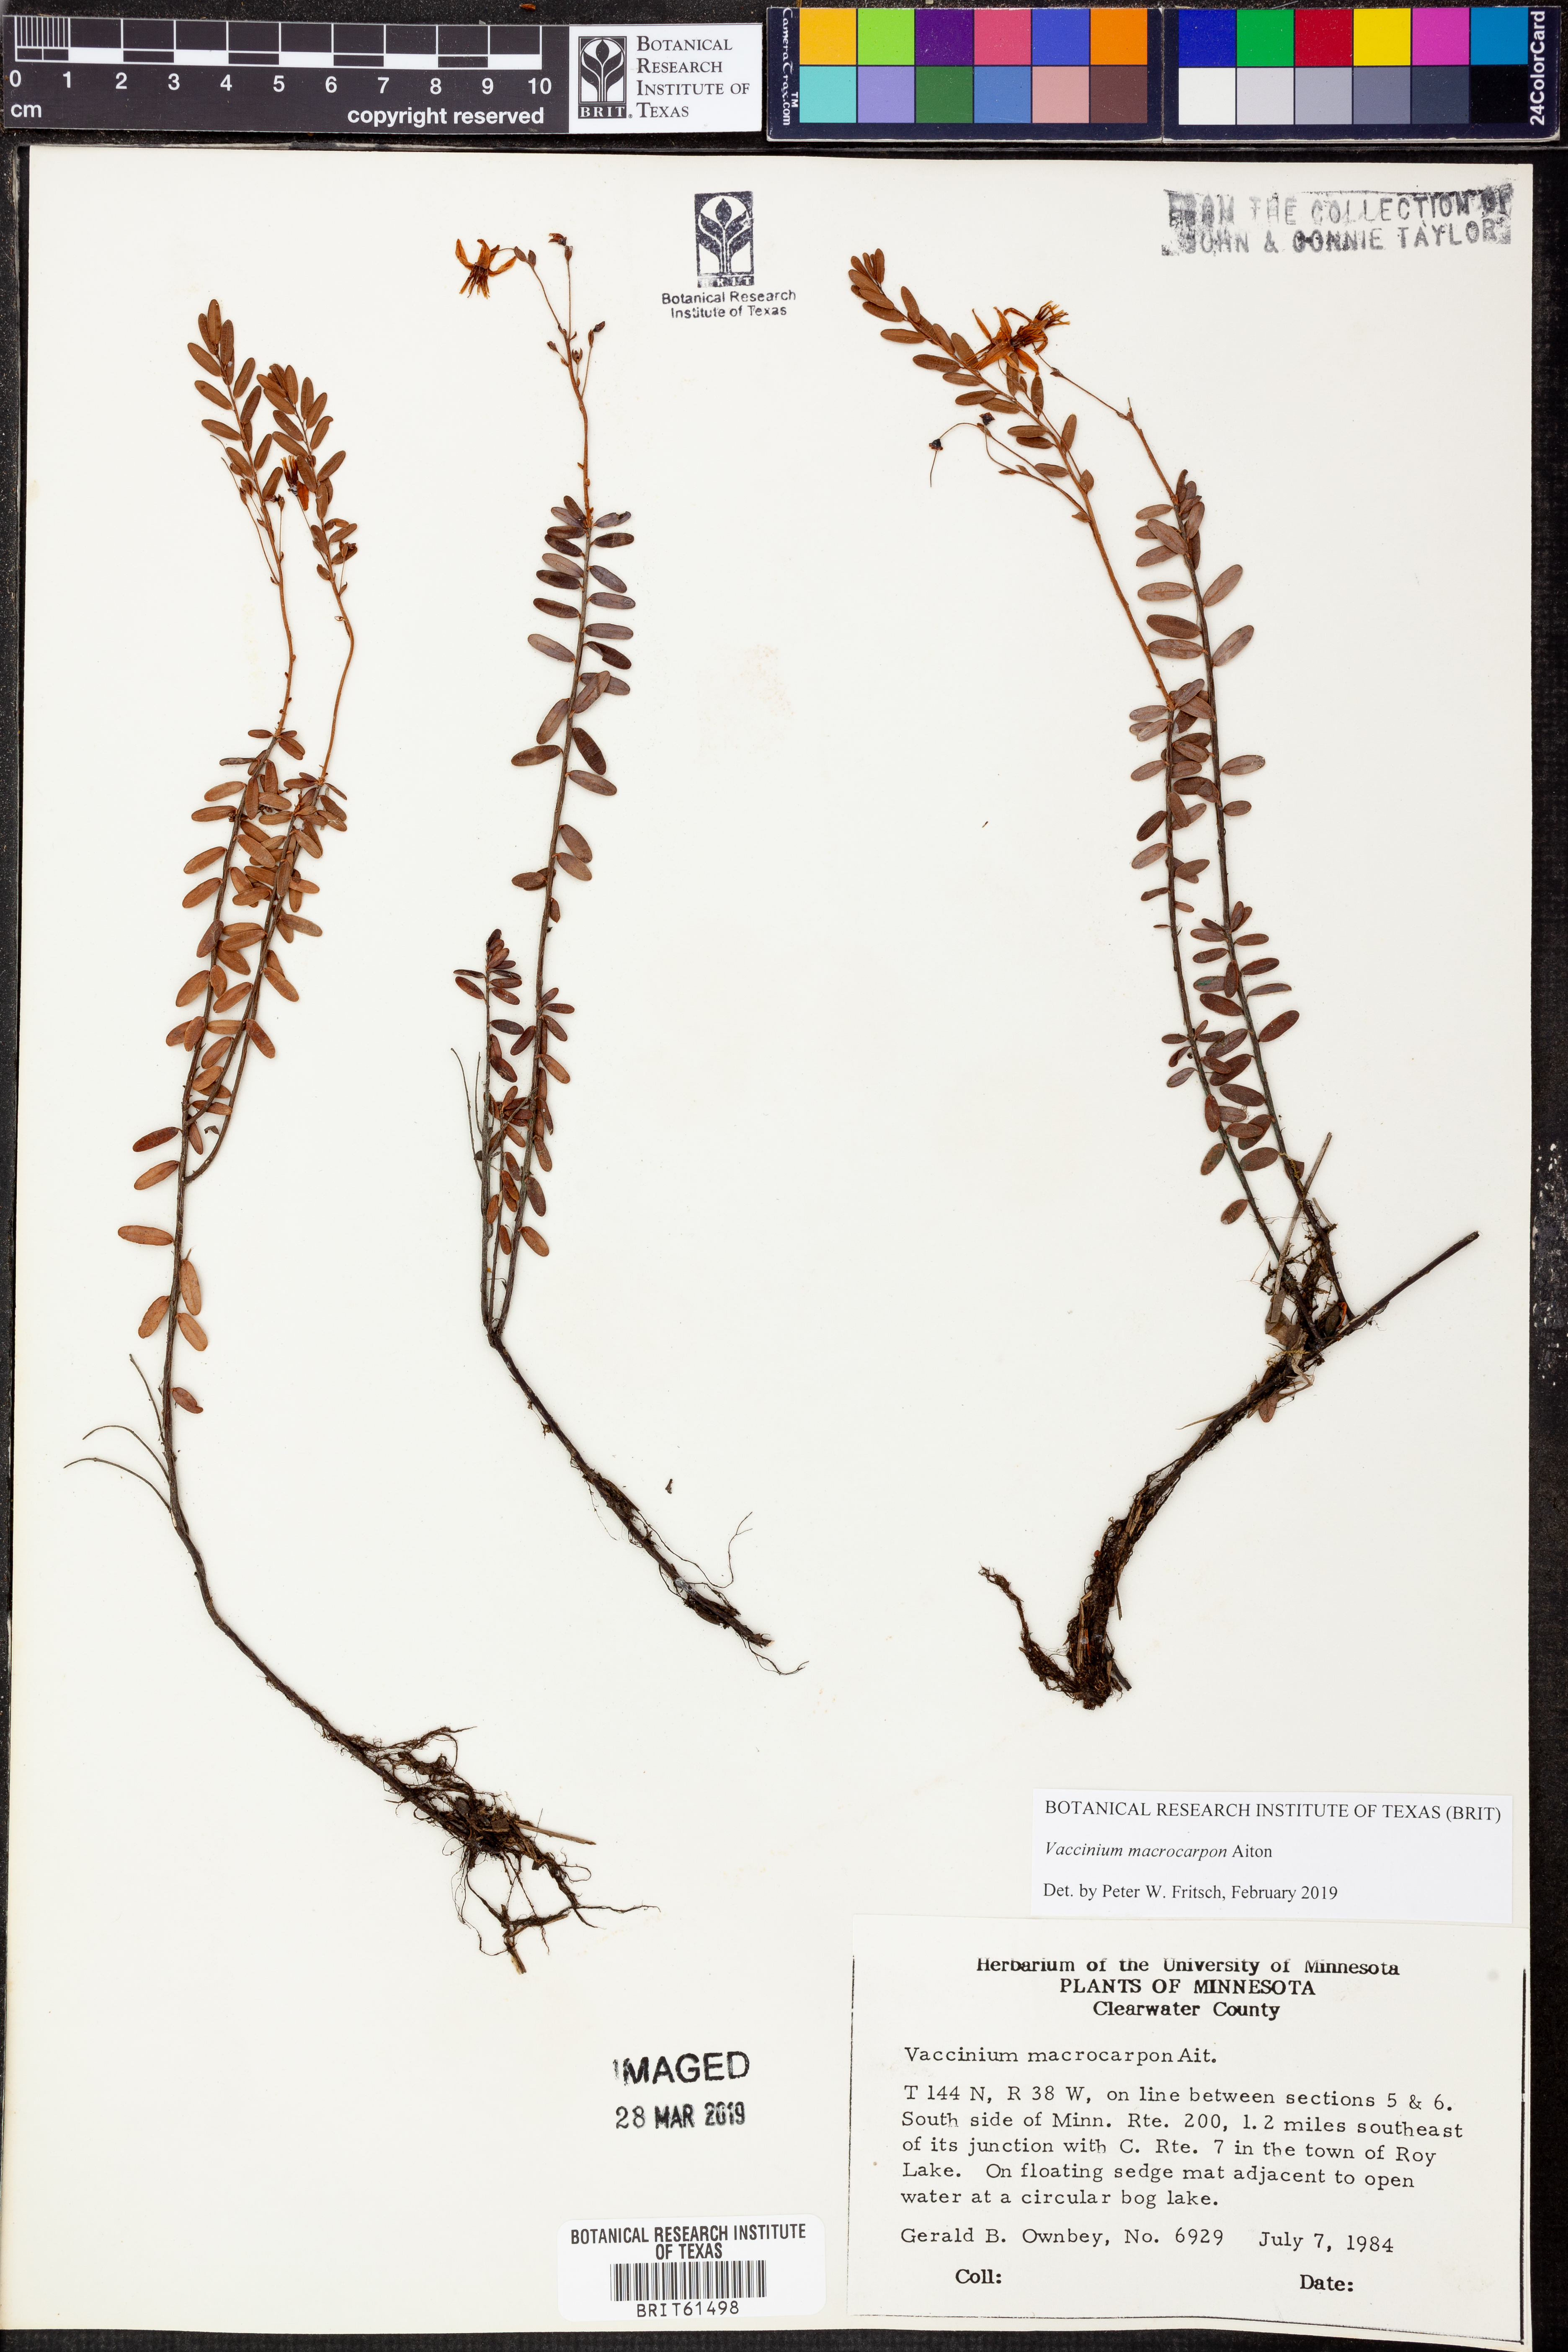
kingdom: Plantae
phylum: Tracheophyta
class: Magnoliopsida
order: Ericales
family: Ericaceae
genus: Vaccinium
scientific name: Vaccinium macrocarpon
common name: American cranberry
